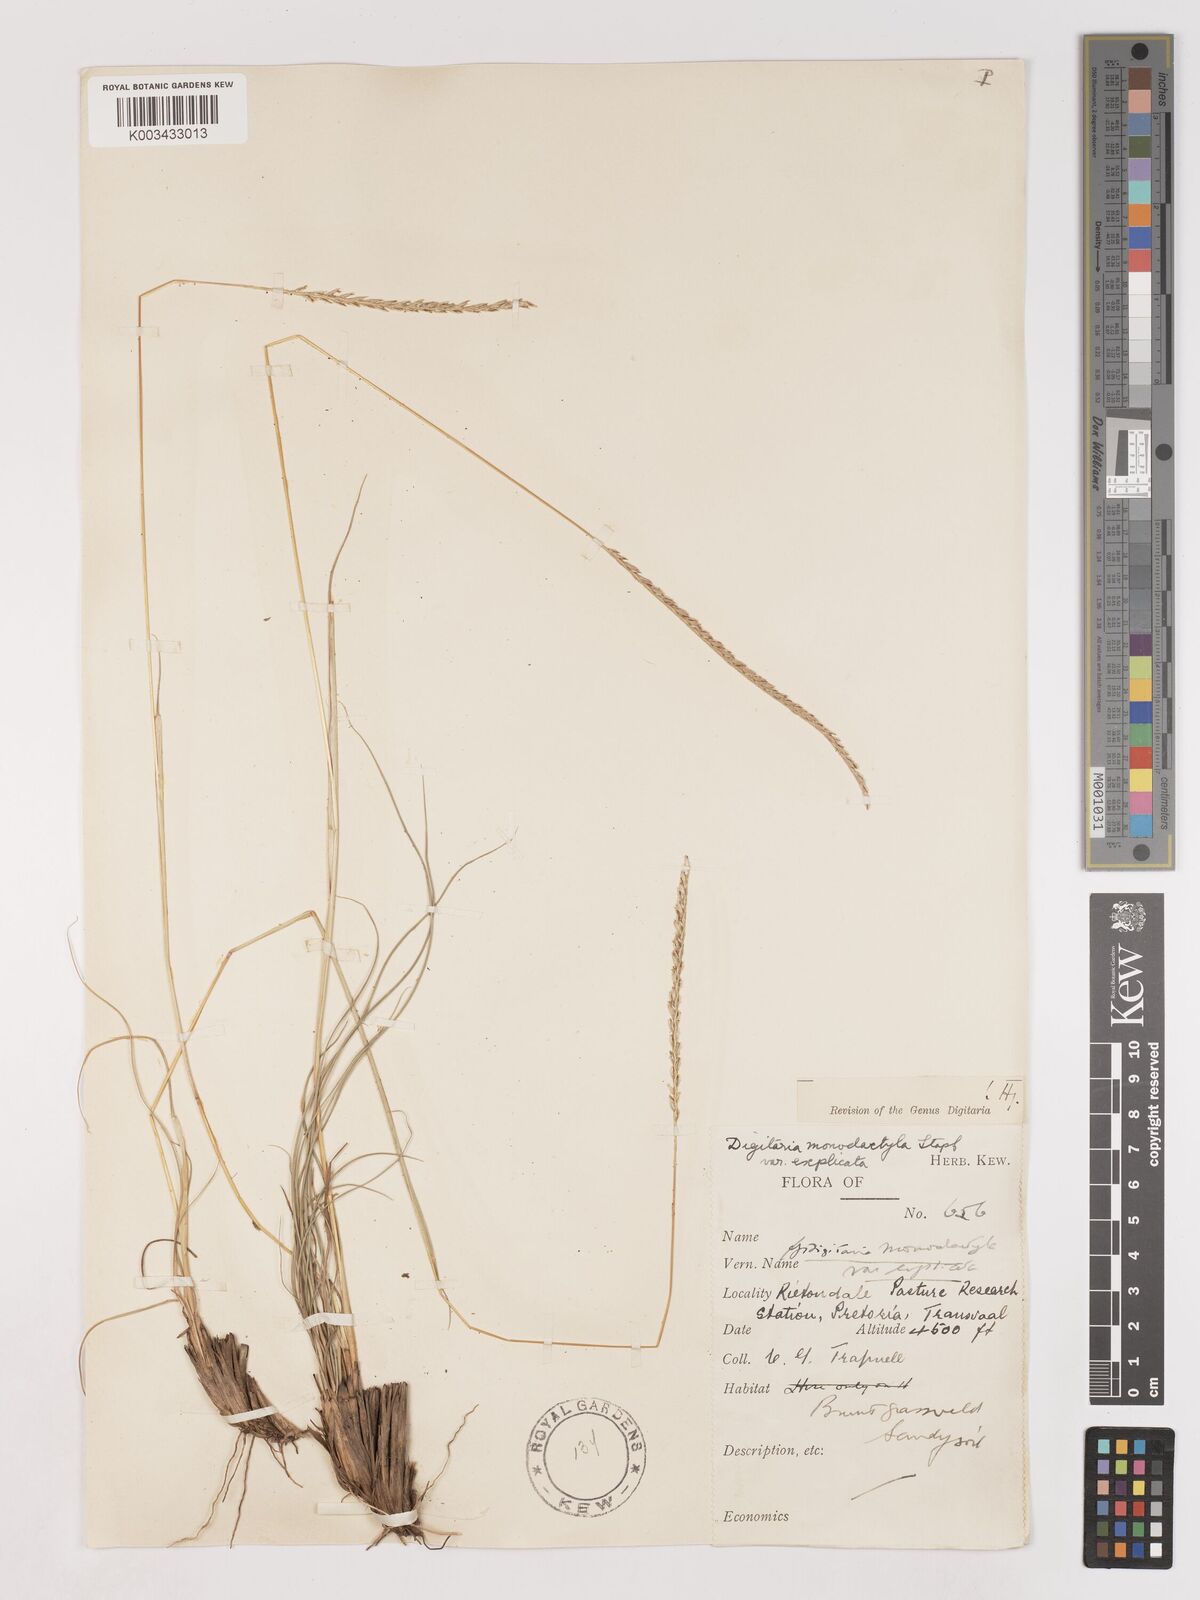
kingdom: Plantae
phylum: Tracheophyta
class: Liliopsida
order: Poales
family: Poaceae
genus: Digitaria
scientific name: Digitaria monodactyla
